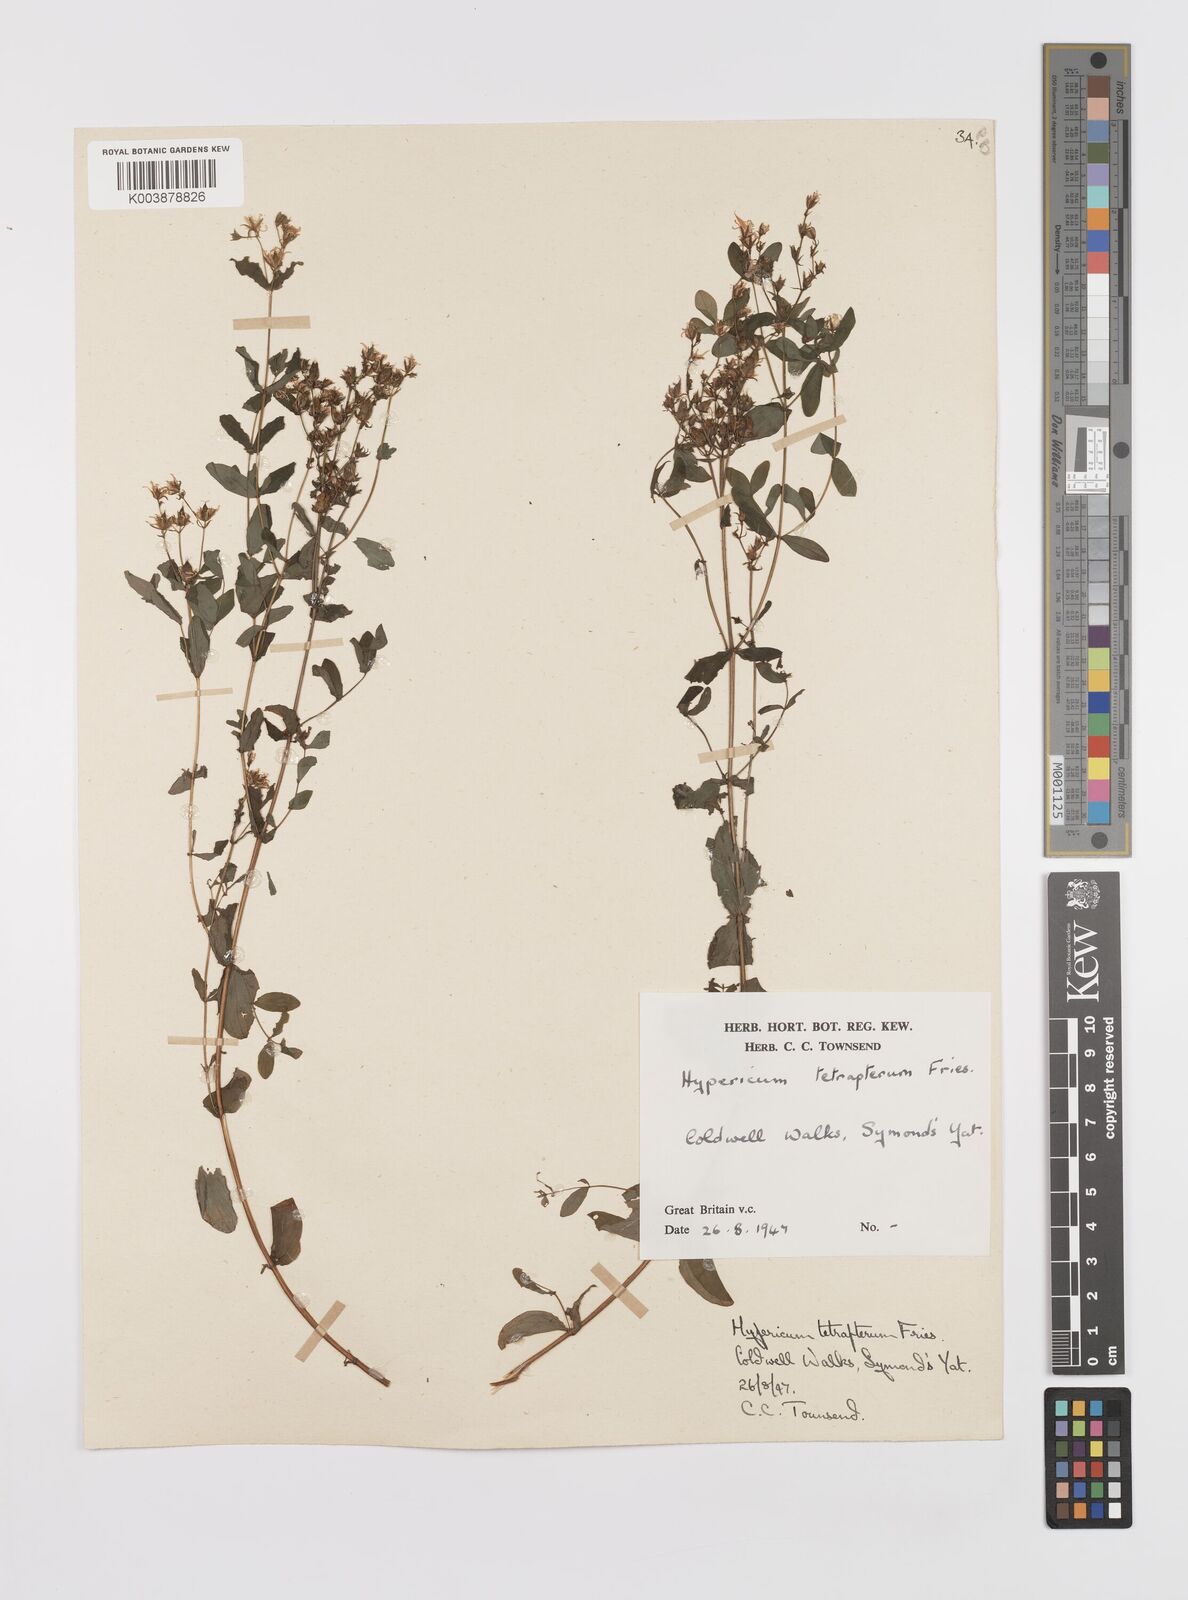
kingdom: Plantae
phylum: Tracheophyta
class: Magnoliopsida
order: Malpighiales
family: Hypericaceae
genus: Hypericum
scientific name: Hypericum tetrapterum
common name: Square-stalked st. john's-wort
